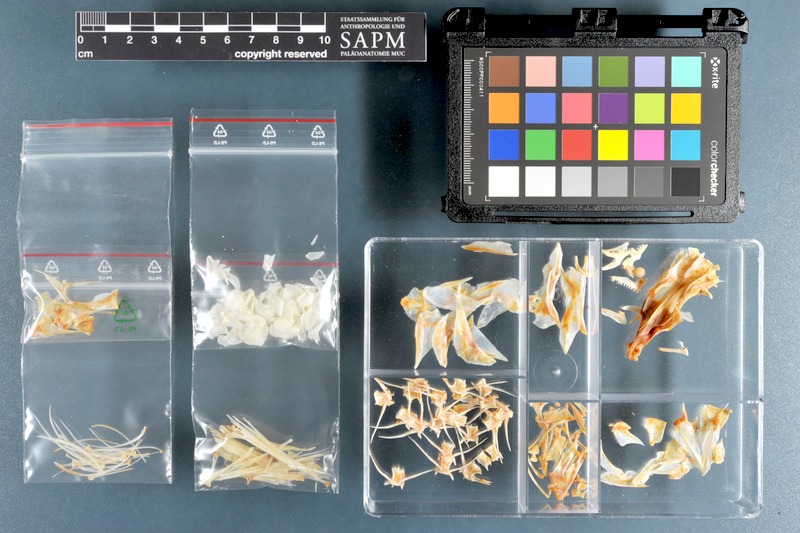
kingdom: Animalia
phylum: Chordata
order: Perciformes
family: Mullidae
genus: Parupeneus
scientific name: Parupeneus heptacanthus
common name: Cinnabar goatfish
